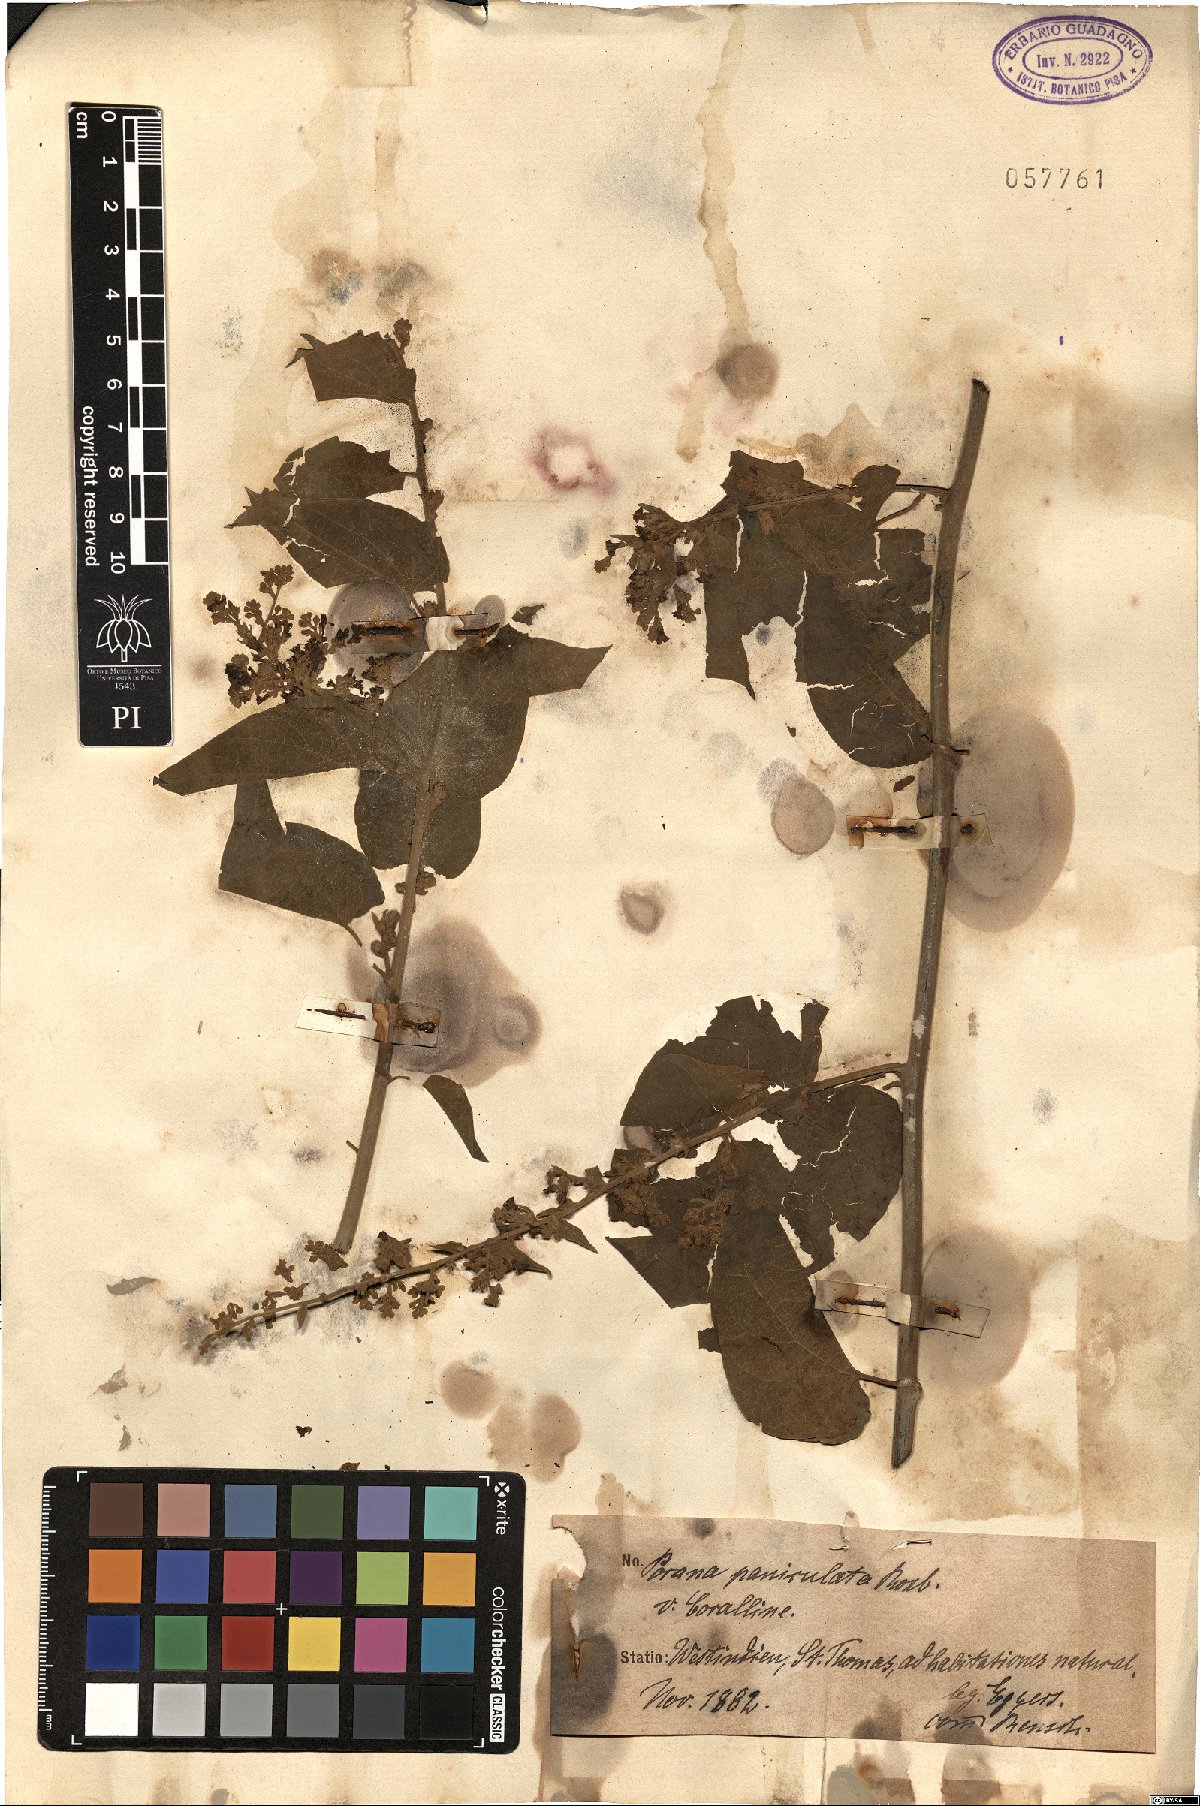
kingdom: Plantae
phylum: Tracheophyta
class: Magnoliopsida
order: Solanales
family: Convolvulaceae
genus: Poranopsis
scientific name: Poranopsis paniculata
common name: Bridal bouquet
